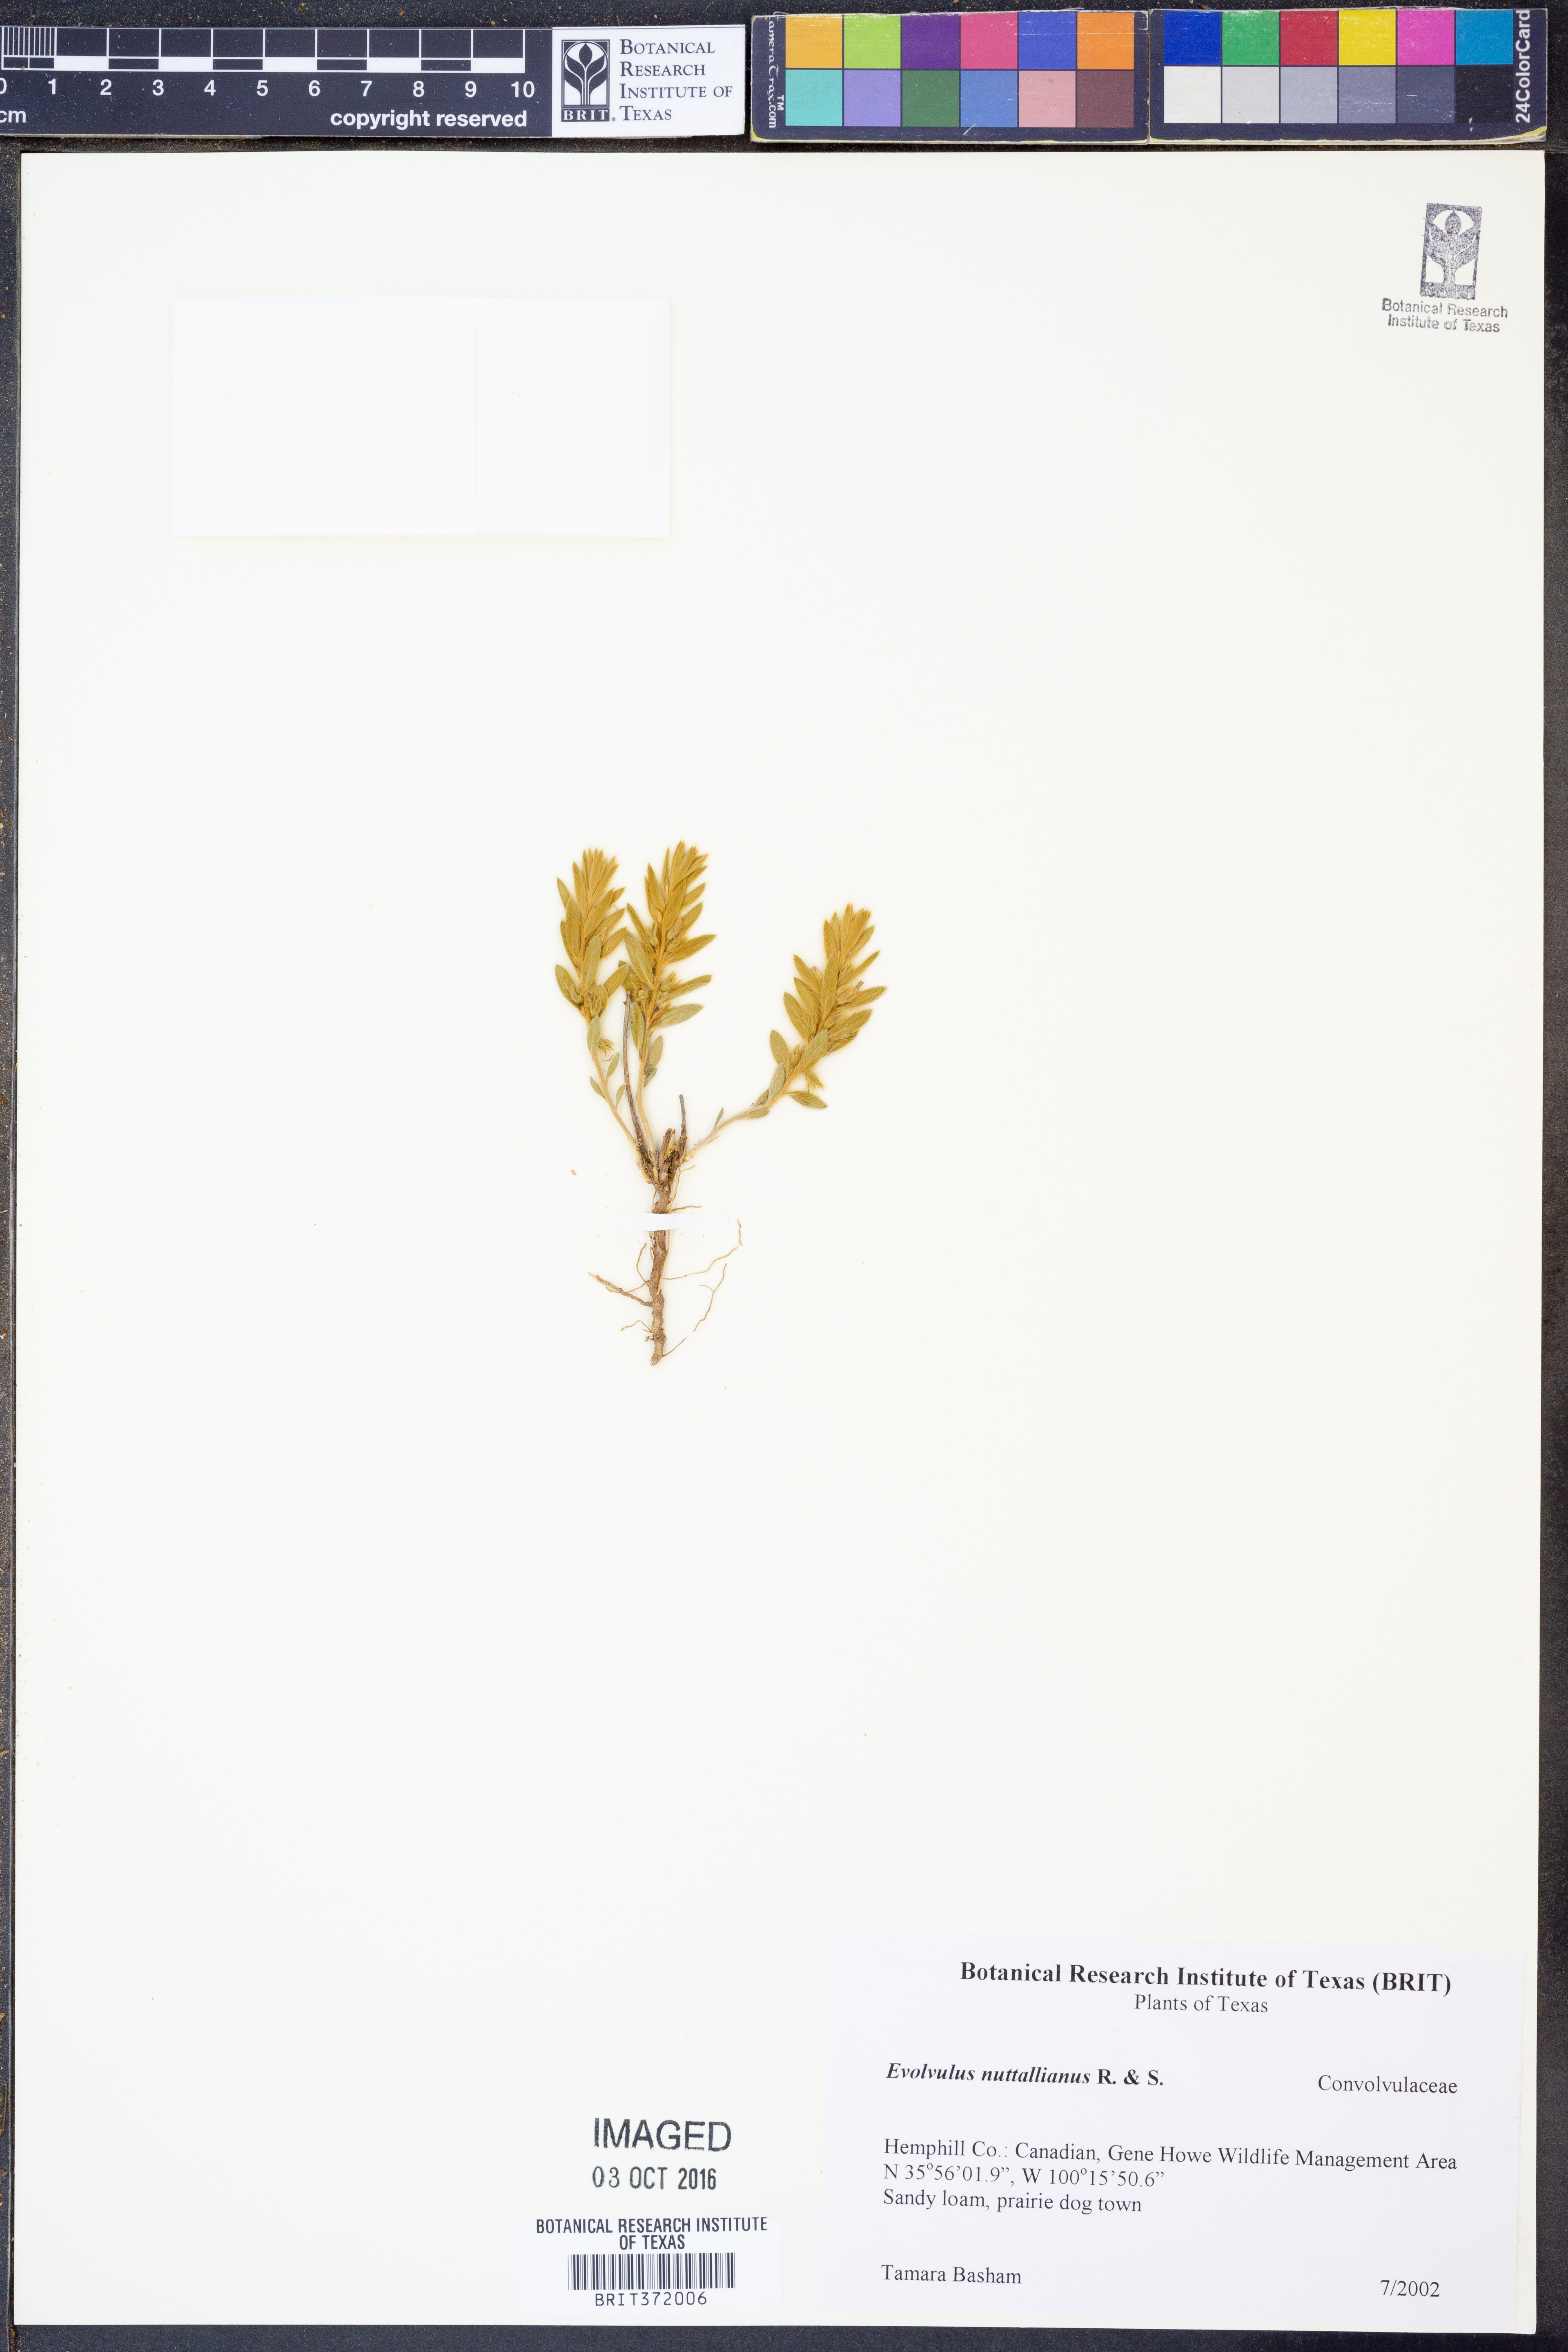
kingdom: Plantae
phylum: Tracheophyta
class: Magnoliopsida
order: Solanales
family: Convolvulaceae
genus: Evolvulus
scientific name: Evolvulus nuttallianus
